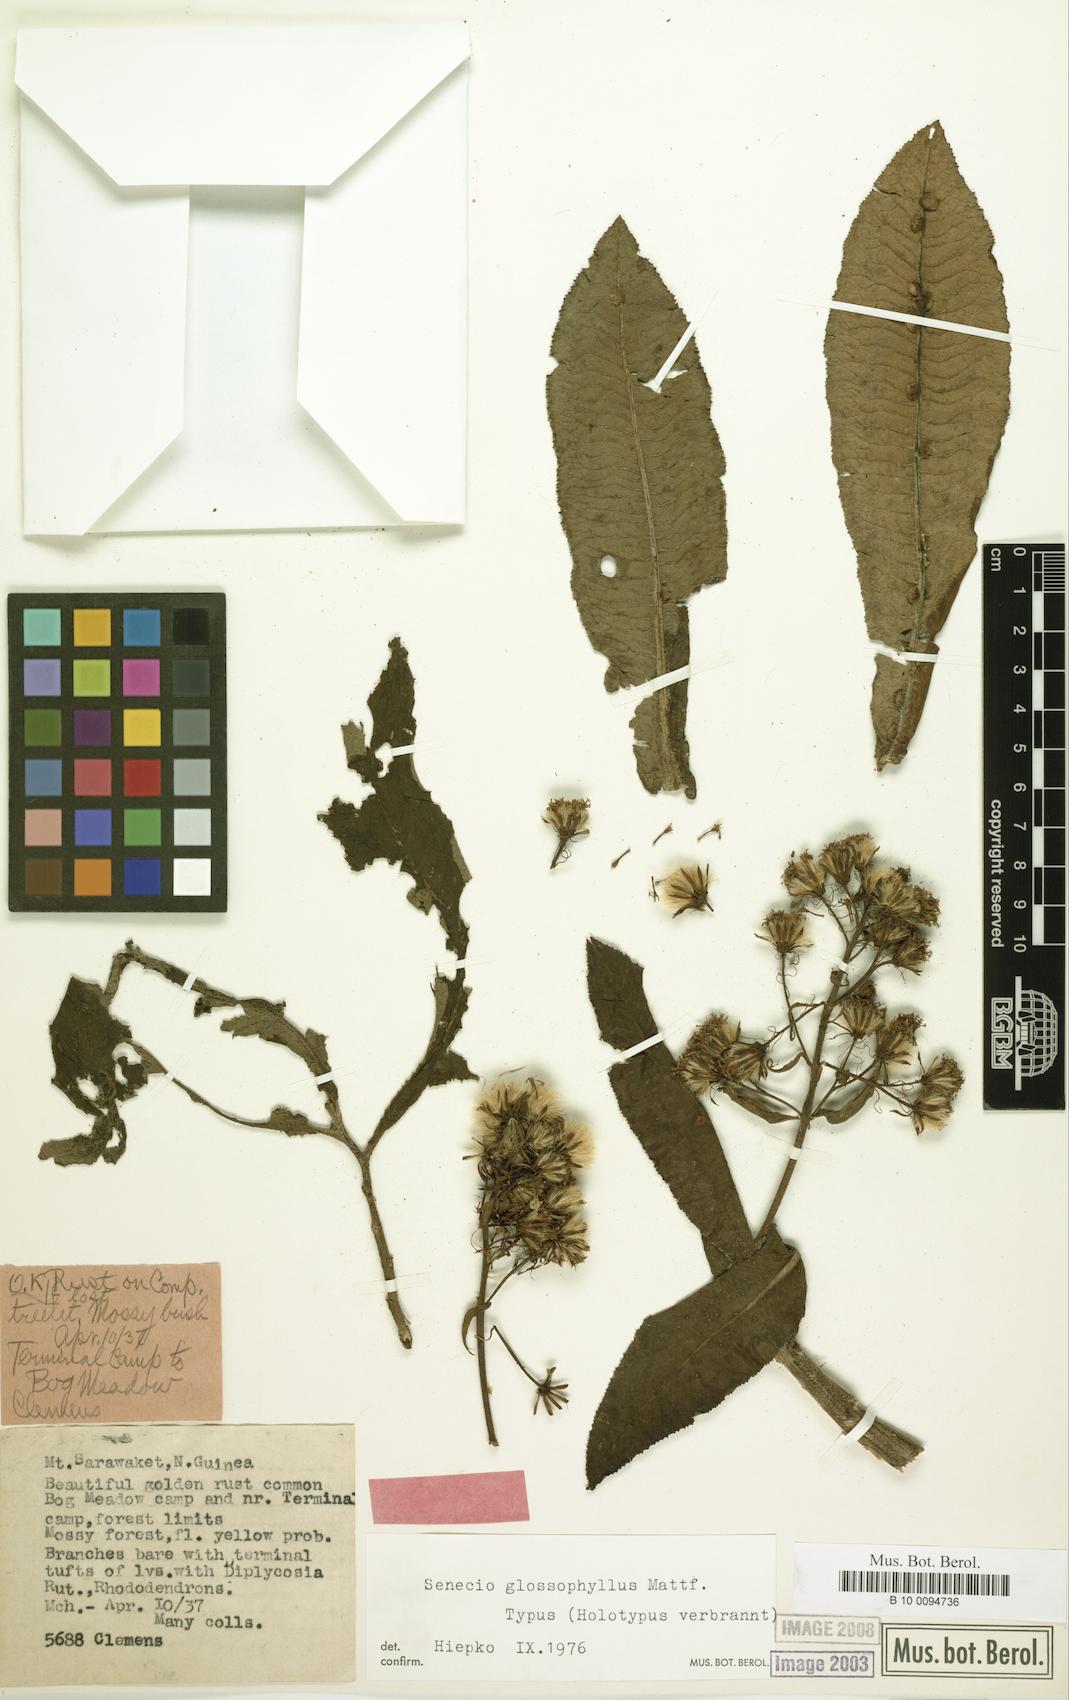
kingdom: Plantae
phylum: Tracheophyta
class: Magnoliopsida
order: Asterales
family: Asteraceae
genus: Papuacalia
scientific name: Papuacalia glossophylla
